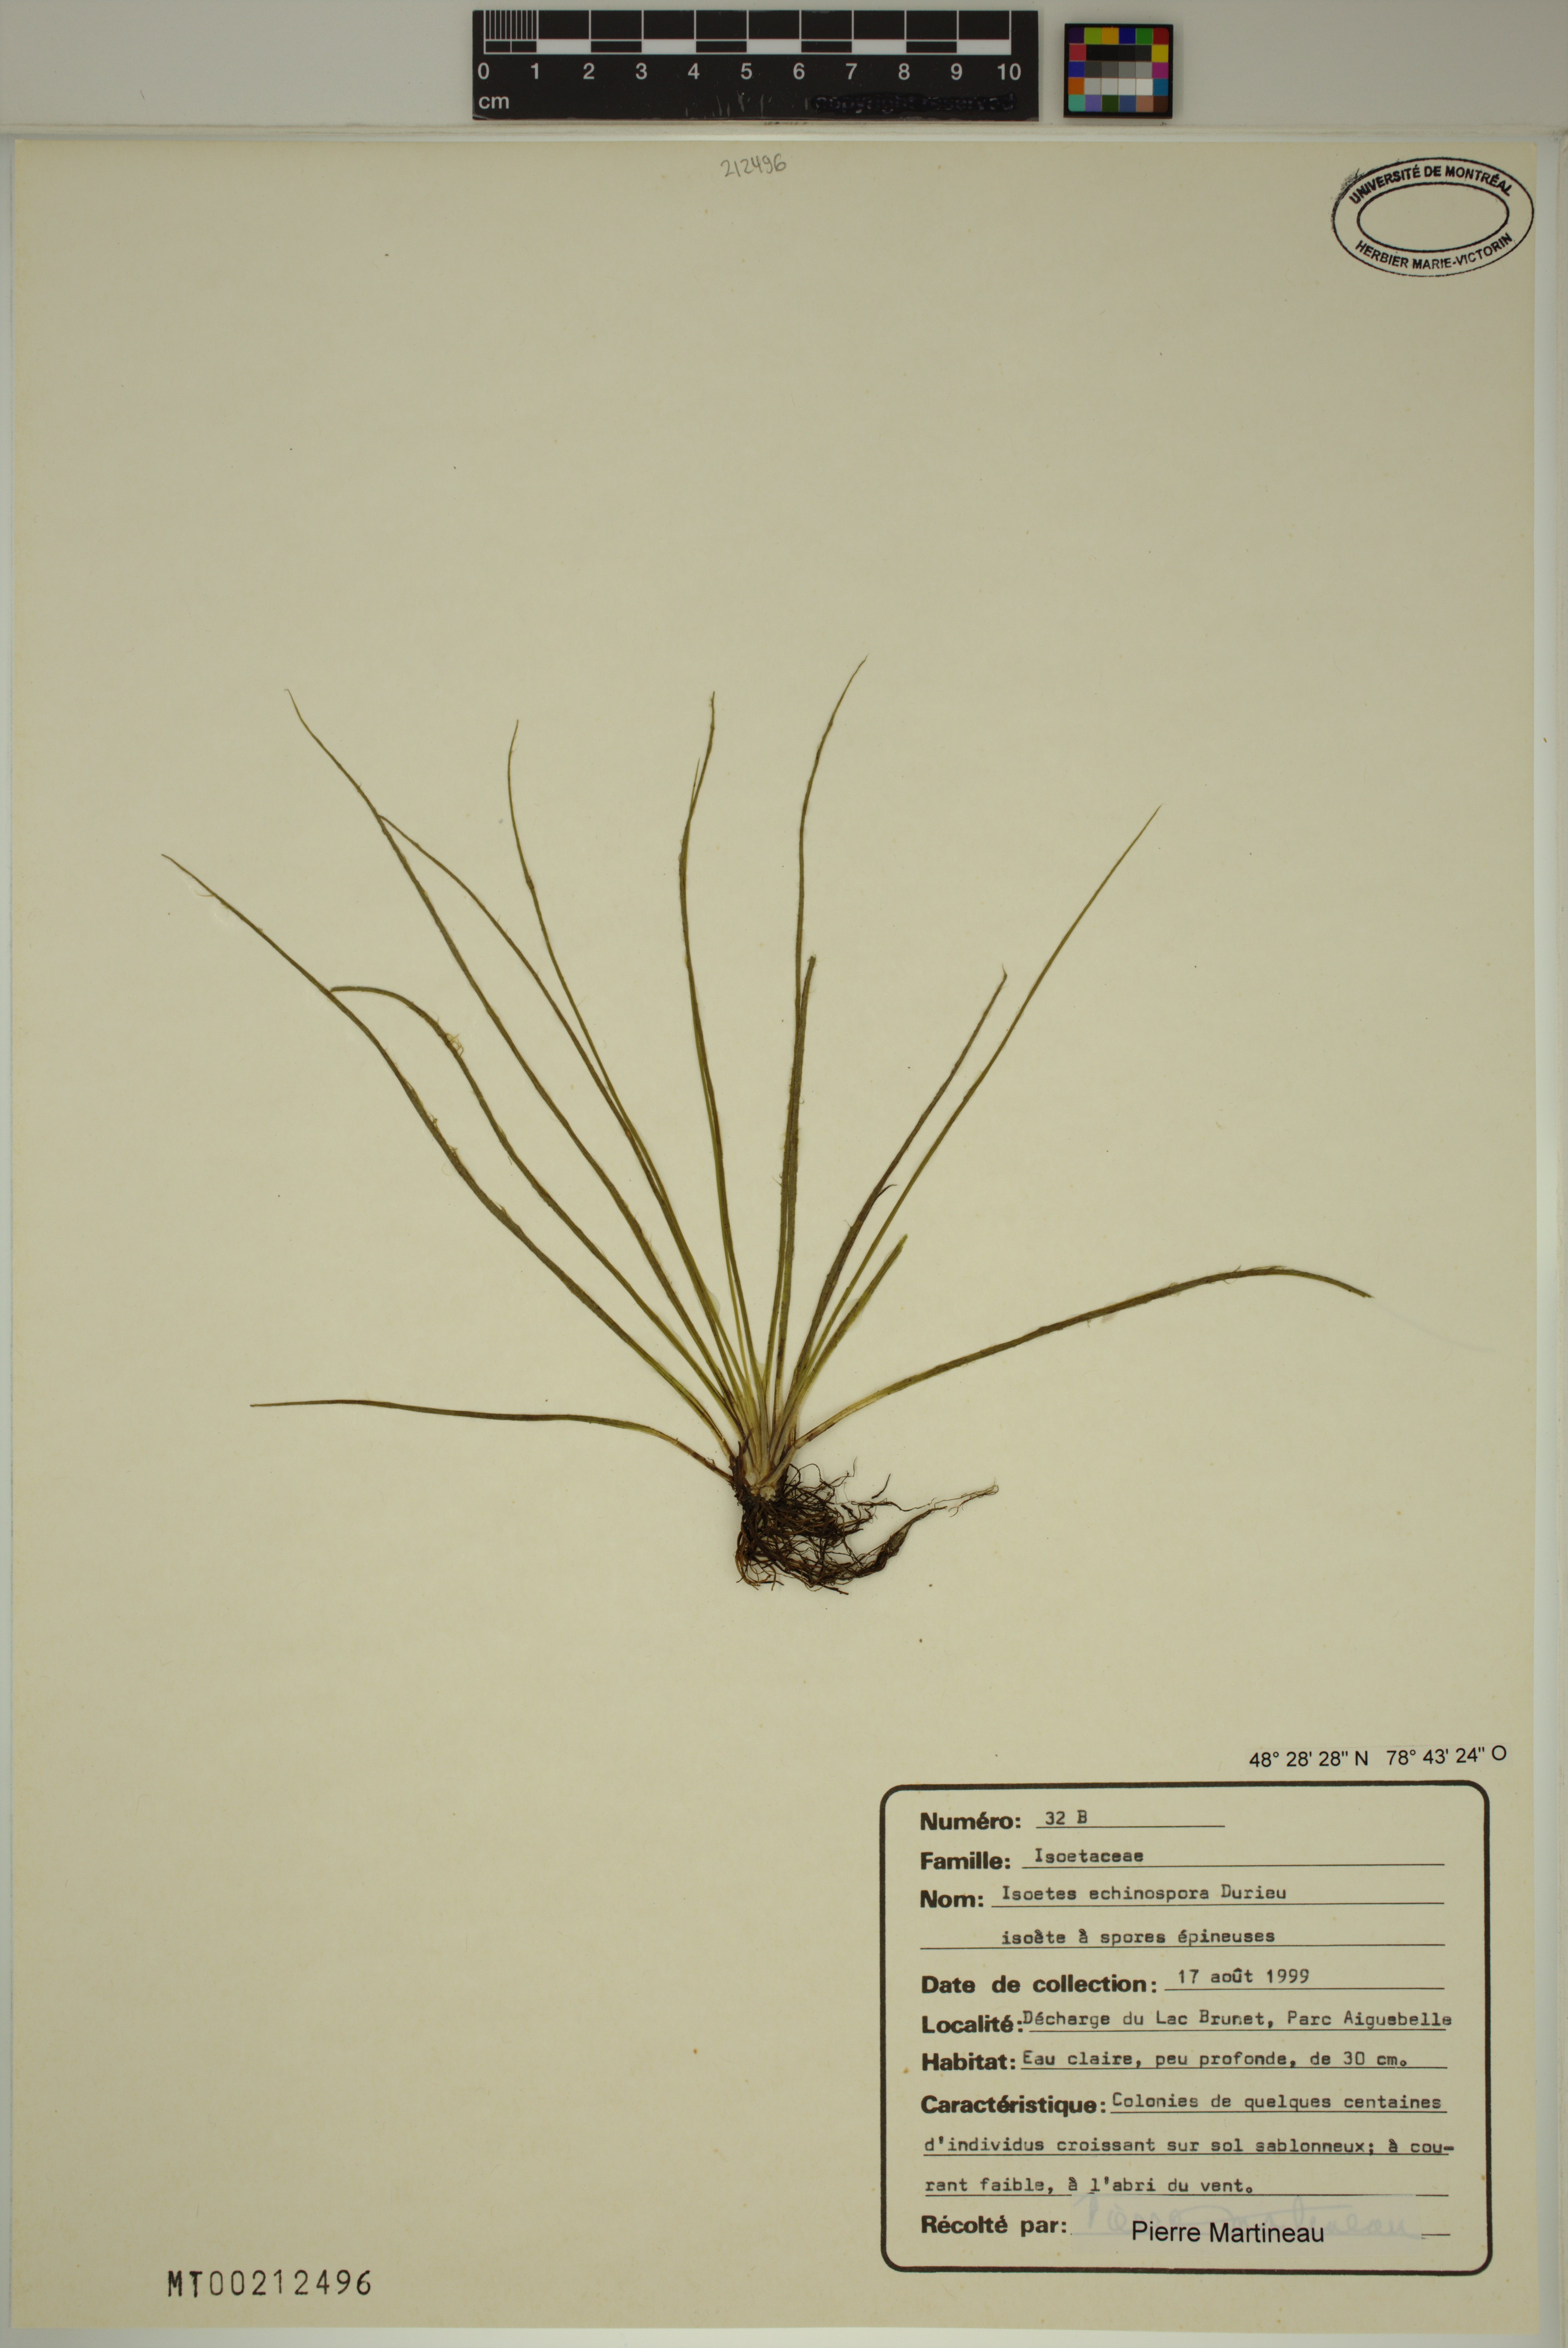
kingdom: Plantae
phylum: Tracheophyta
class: Lycopodiopsida
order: Isoetales
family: Isoetaceae
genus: Isoetes
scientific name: Isoetes echinospora
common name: Spring quillwort
